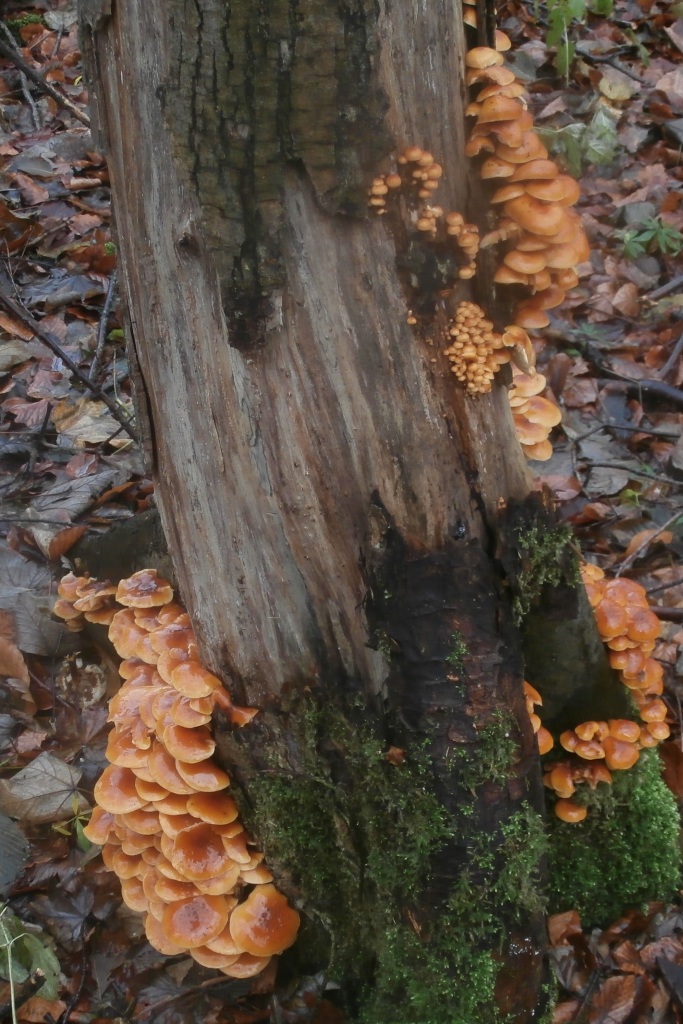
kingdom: Fungi
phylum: Basidiomycota
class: Agaricomycetes
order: Agaricales
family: Physalacriaceae
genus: Flammulina
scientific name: Flammulina velutipes
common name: gul fløjlsfod
